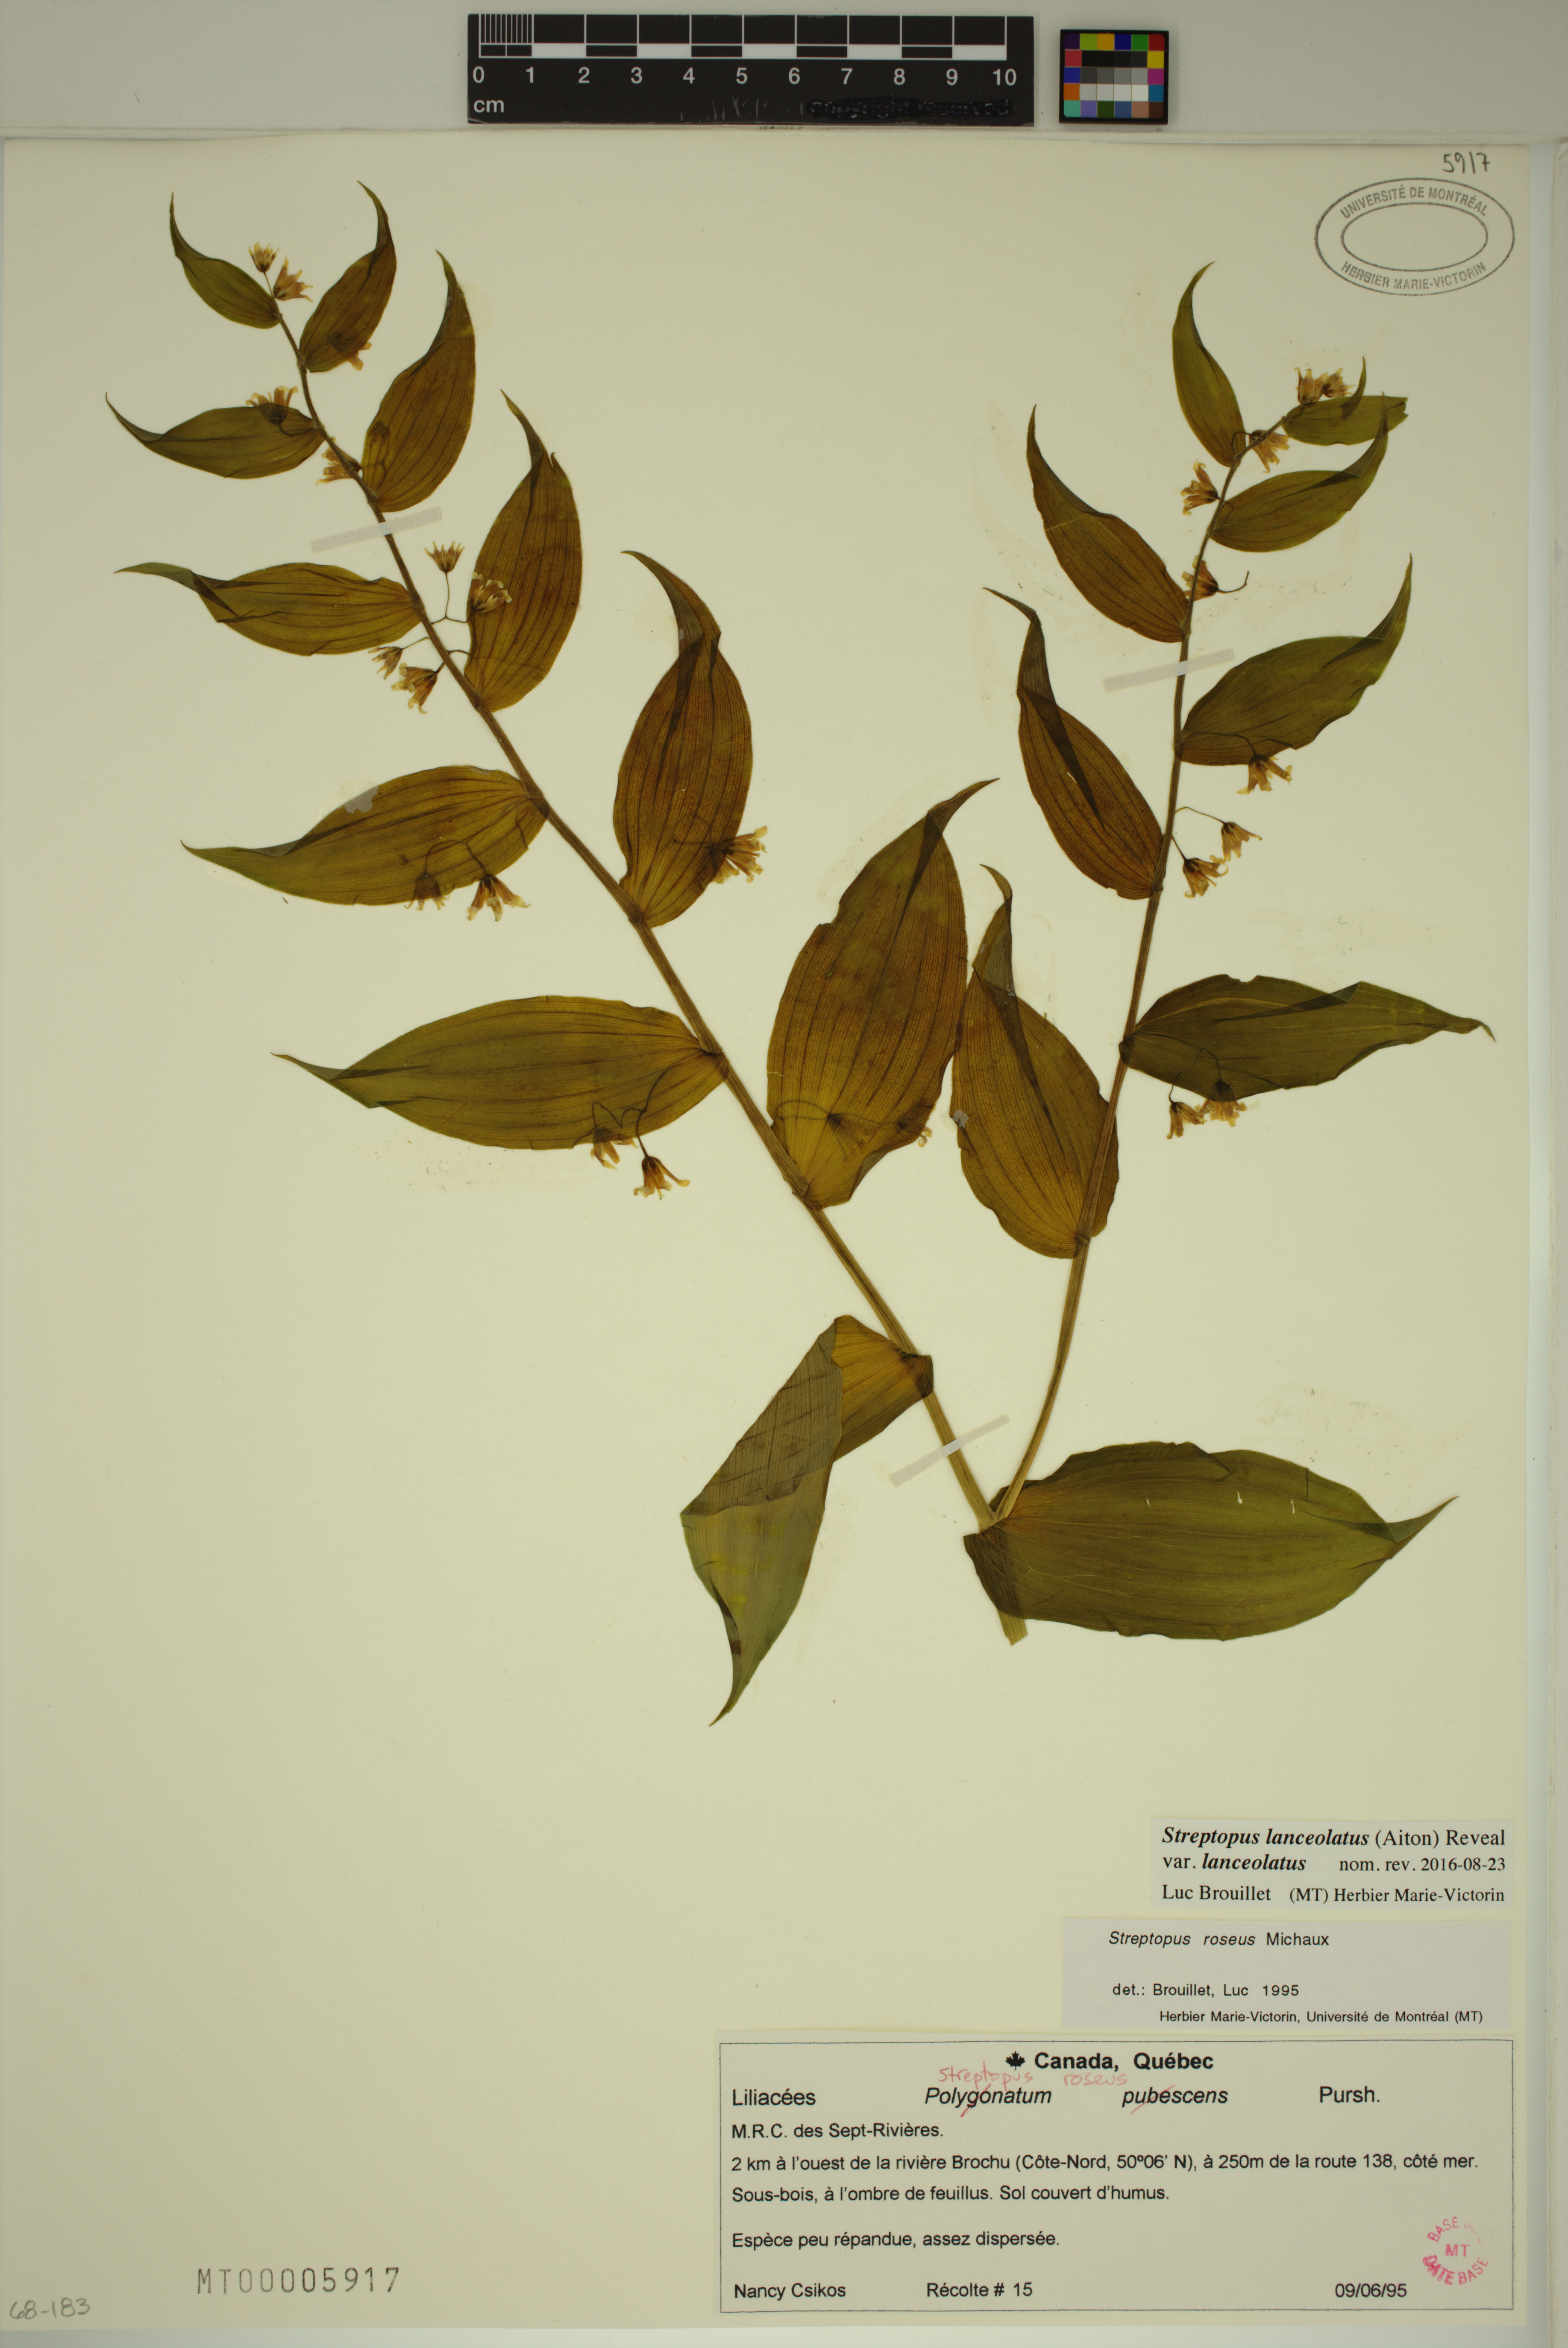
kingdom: Plantae
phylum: Tracheophyta
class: Liliopsida
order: Liliales
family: Liliaceae
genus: Streptopus
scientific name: Streptopus lanceolatus
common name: Rose mandarin
